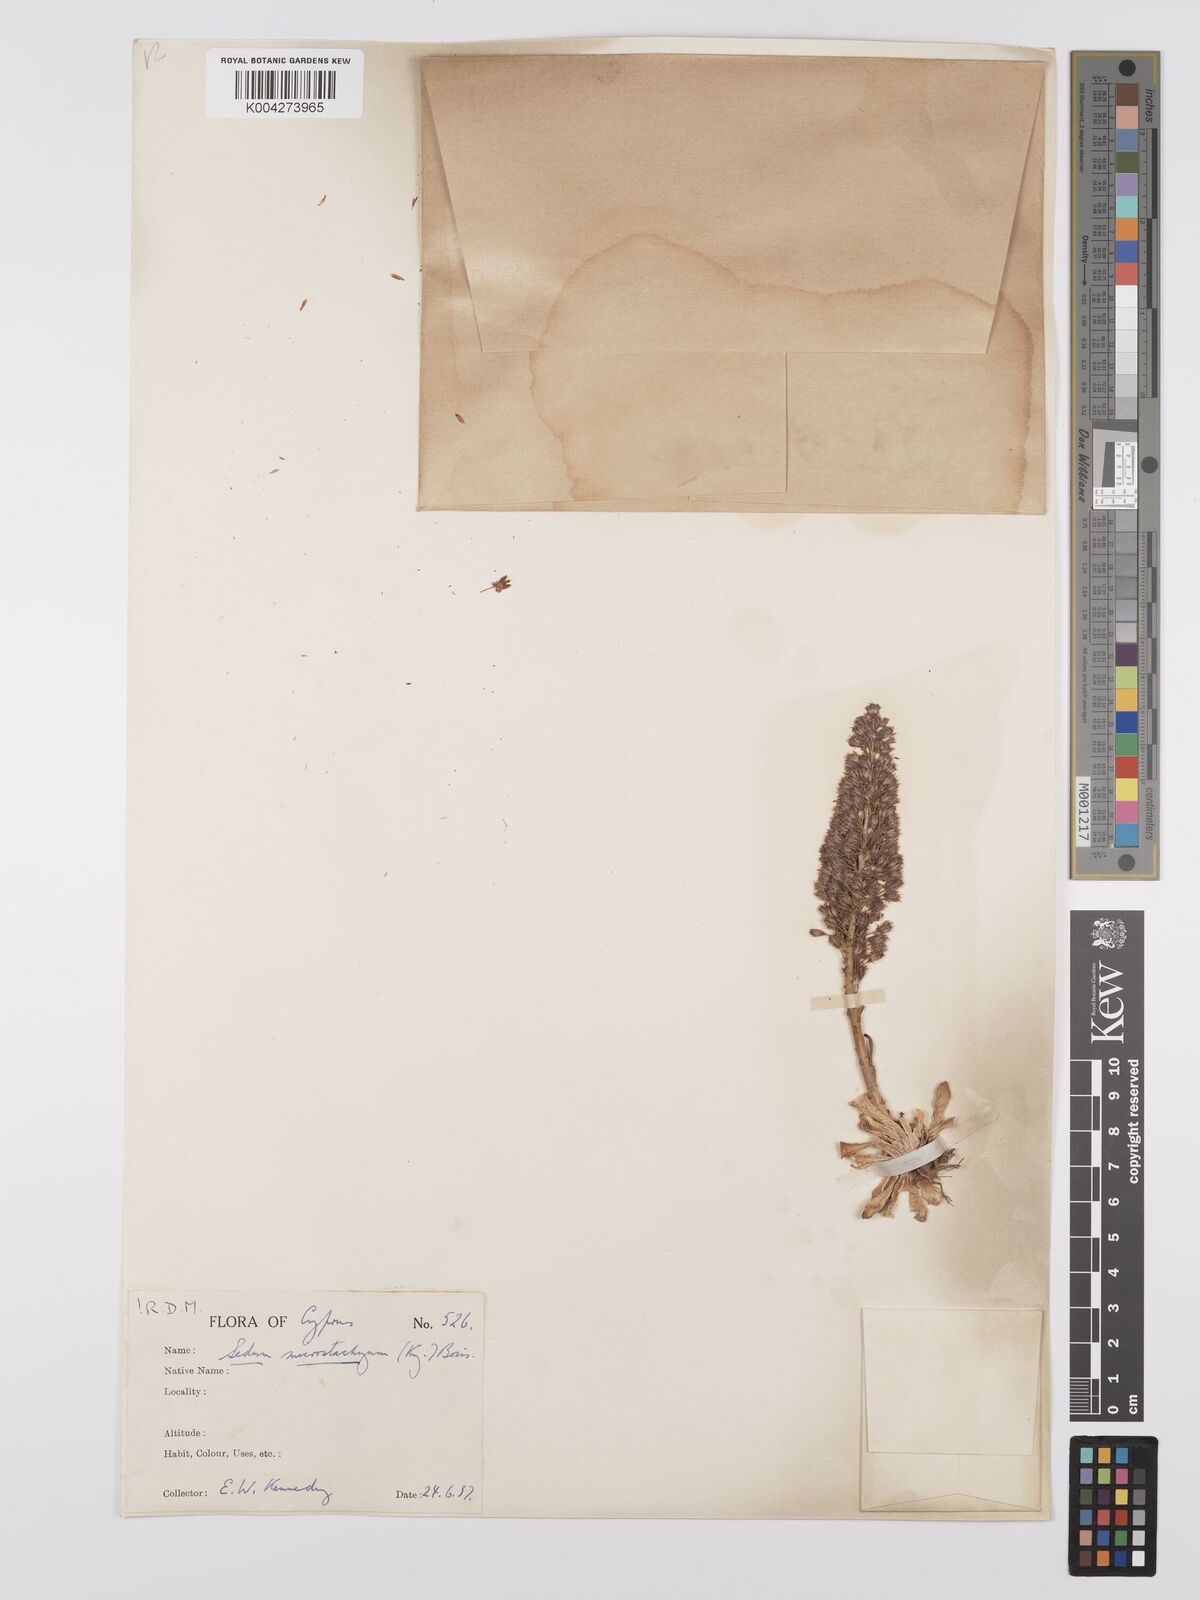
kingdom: Plantae
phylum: Tracheophyta
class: Magnoliopsida
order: Saxifragales
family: Crassulaceae
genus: Sedum
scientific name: Sedum microstachyum
